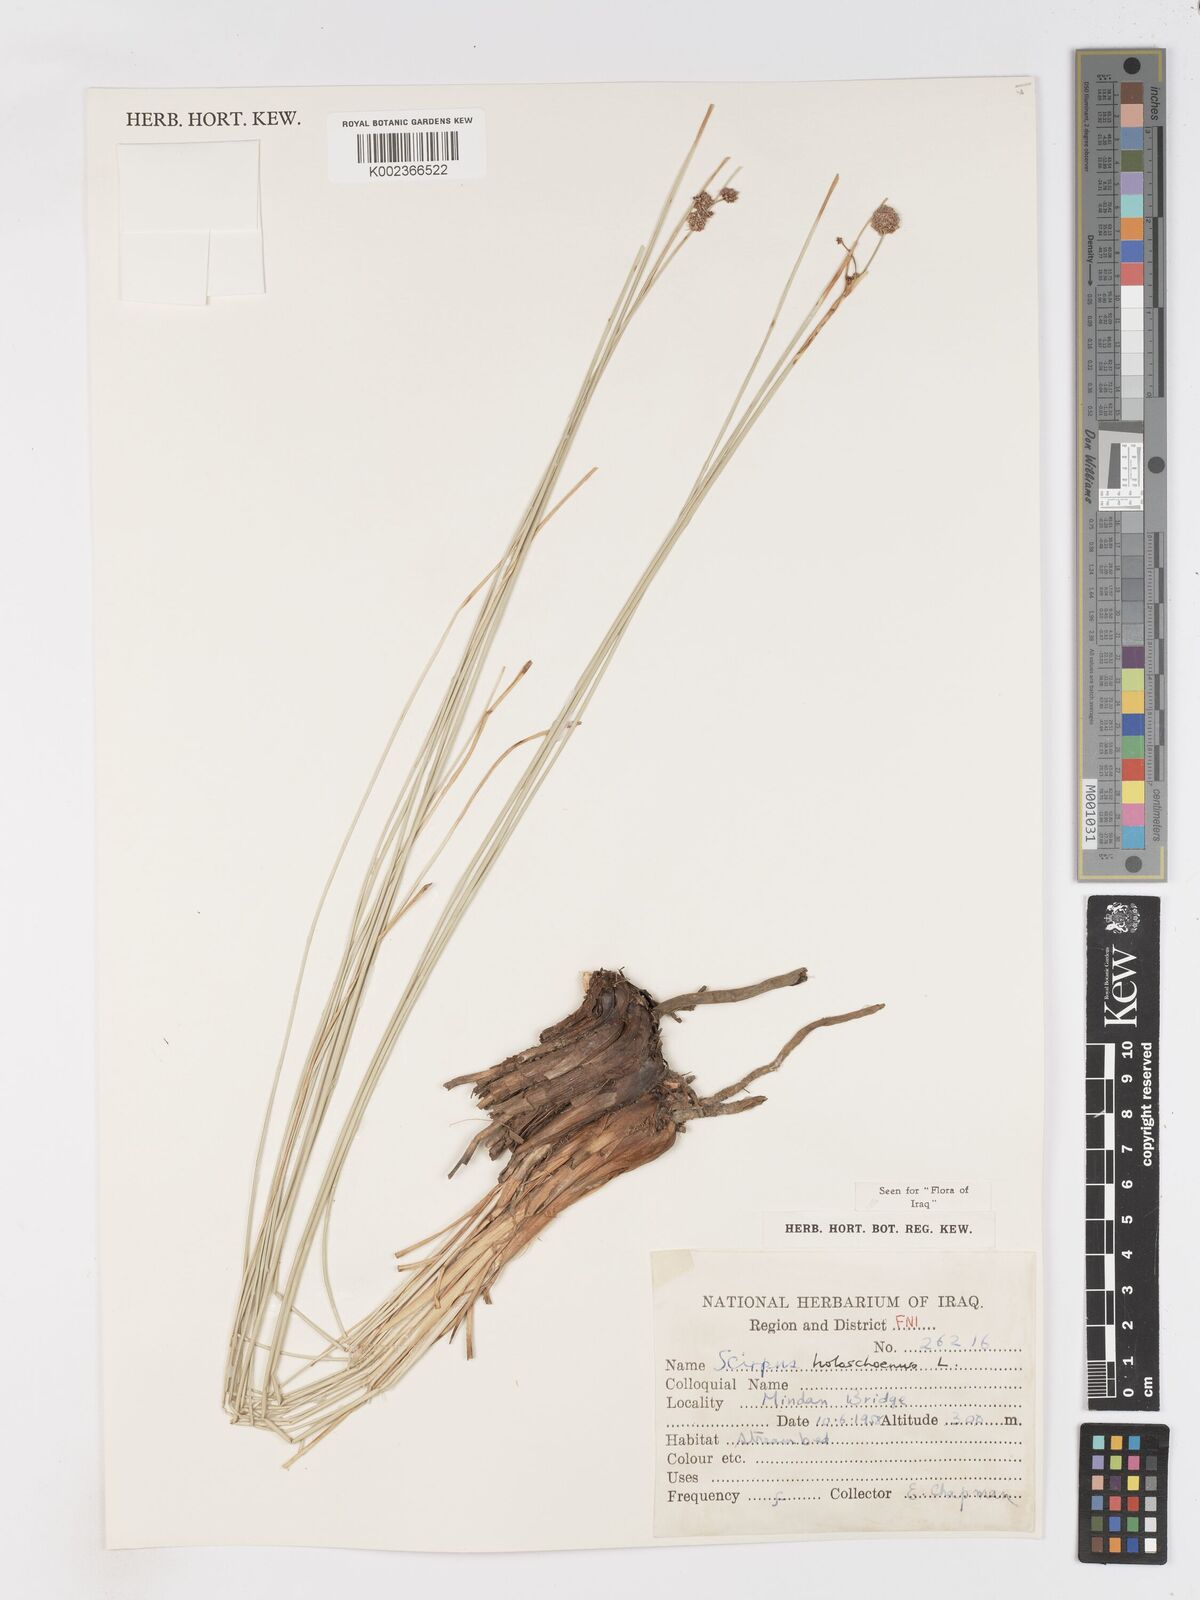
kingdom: Plantae
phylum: Tracheophyta
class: Liliopsida
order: Poales
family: Cyperaceae
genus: Scirpoides
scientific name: Scirpoides holoschoenus
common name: Round-headed club-rush
